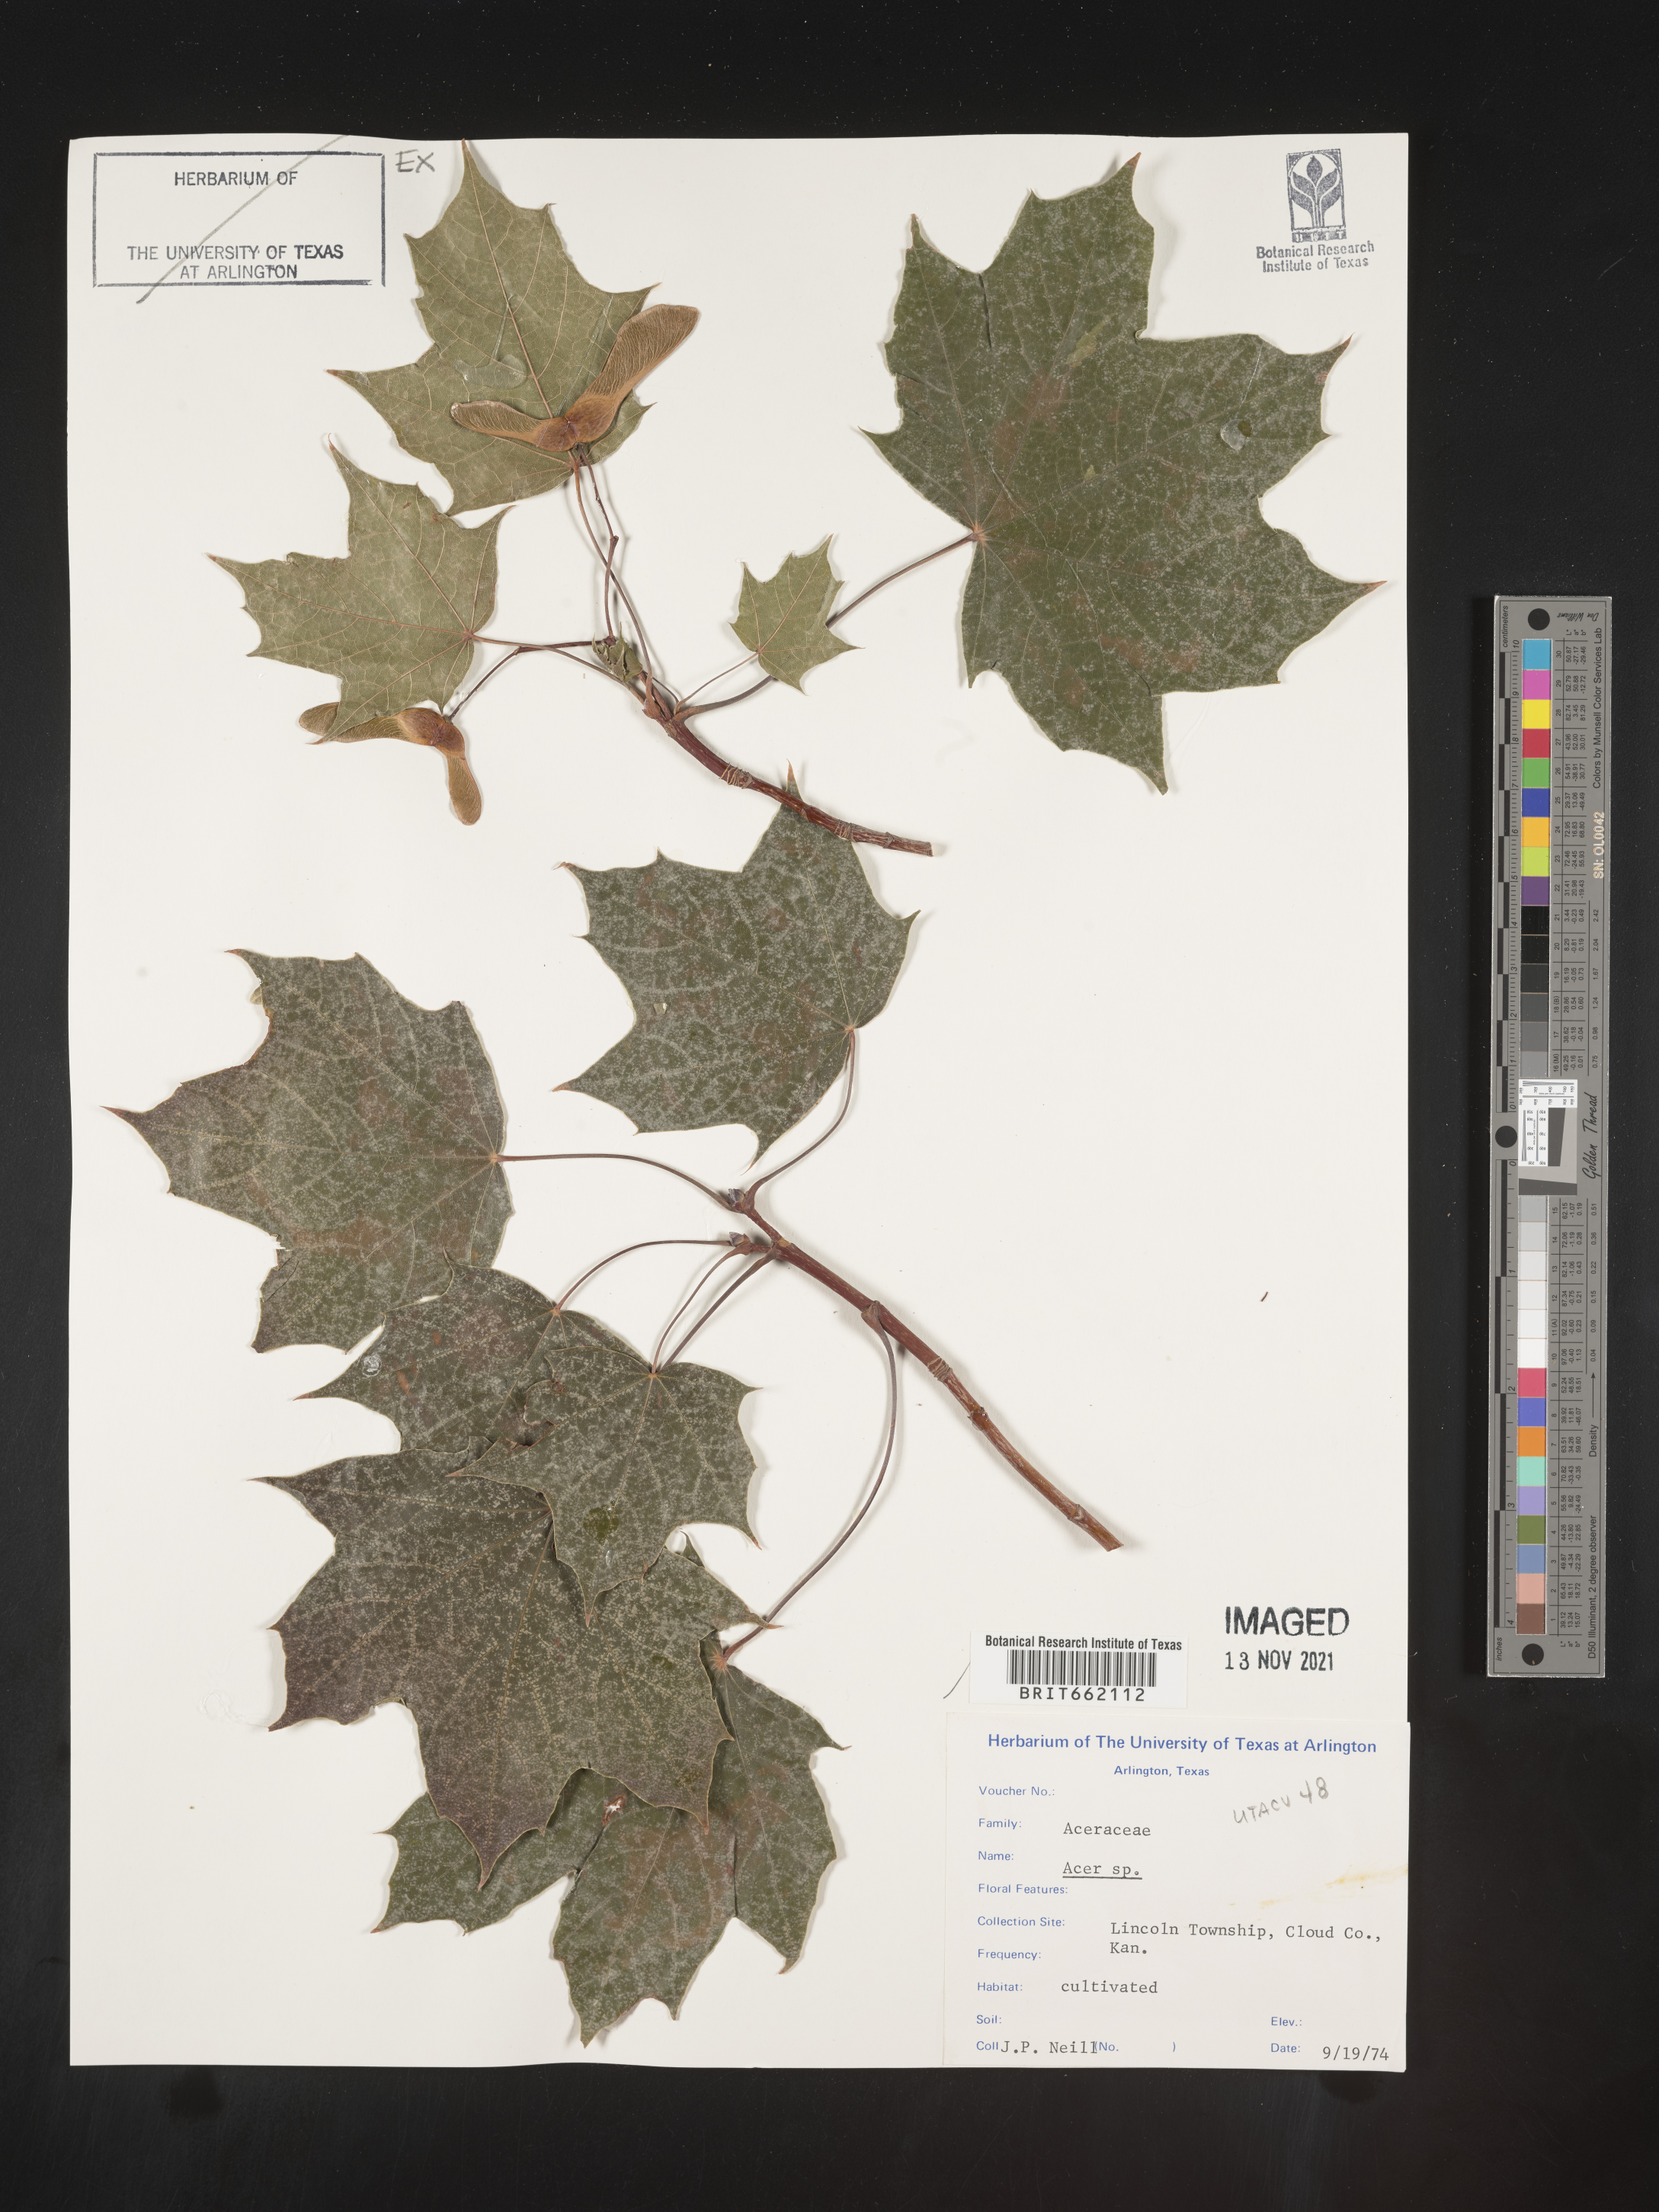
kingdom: Plantae
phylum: Tracheophyta
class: Magnoliopsida
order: Sapindales
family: Sapindaceae
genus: Acer
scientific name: Acer
